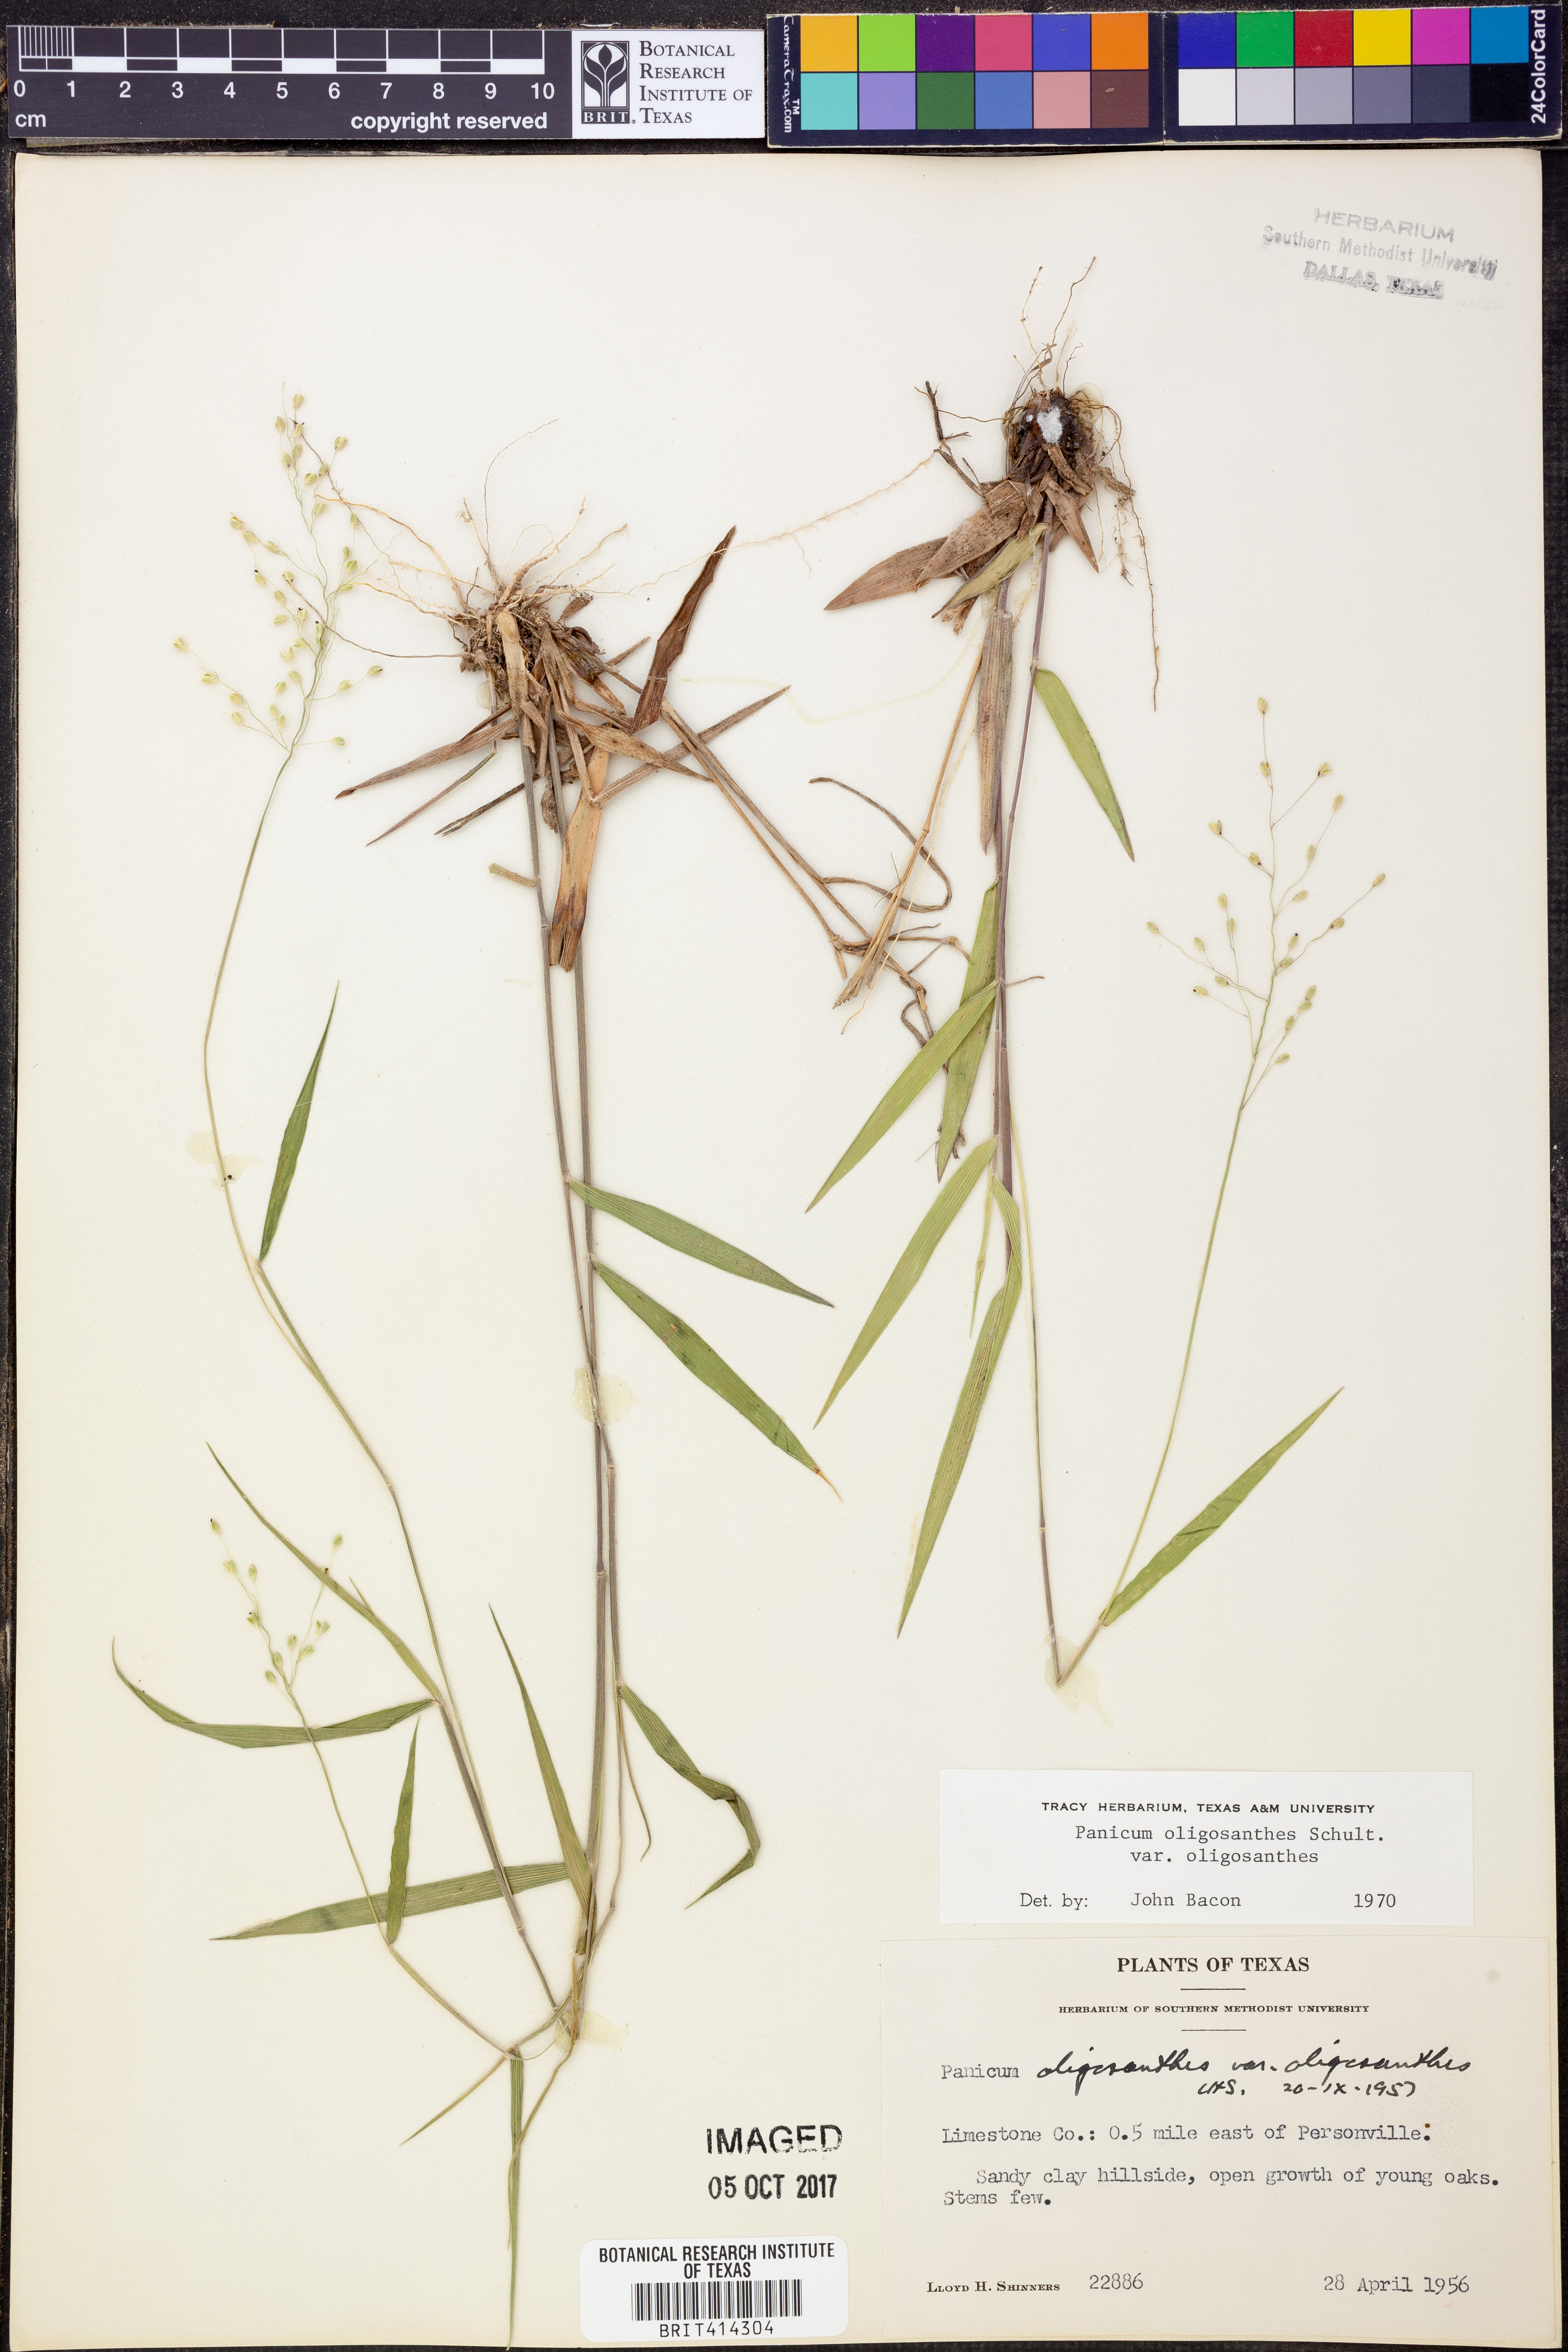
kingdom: Plantae
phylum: Tracheophyta
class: Liliopsida
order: Poales
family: Poaceae
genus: Dichanthelium
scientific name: Dichanthelium oligosanthes
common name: Few-anther obscuregrass
